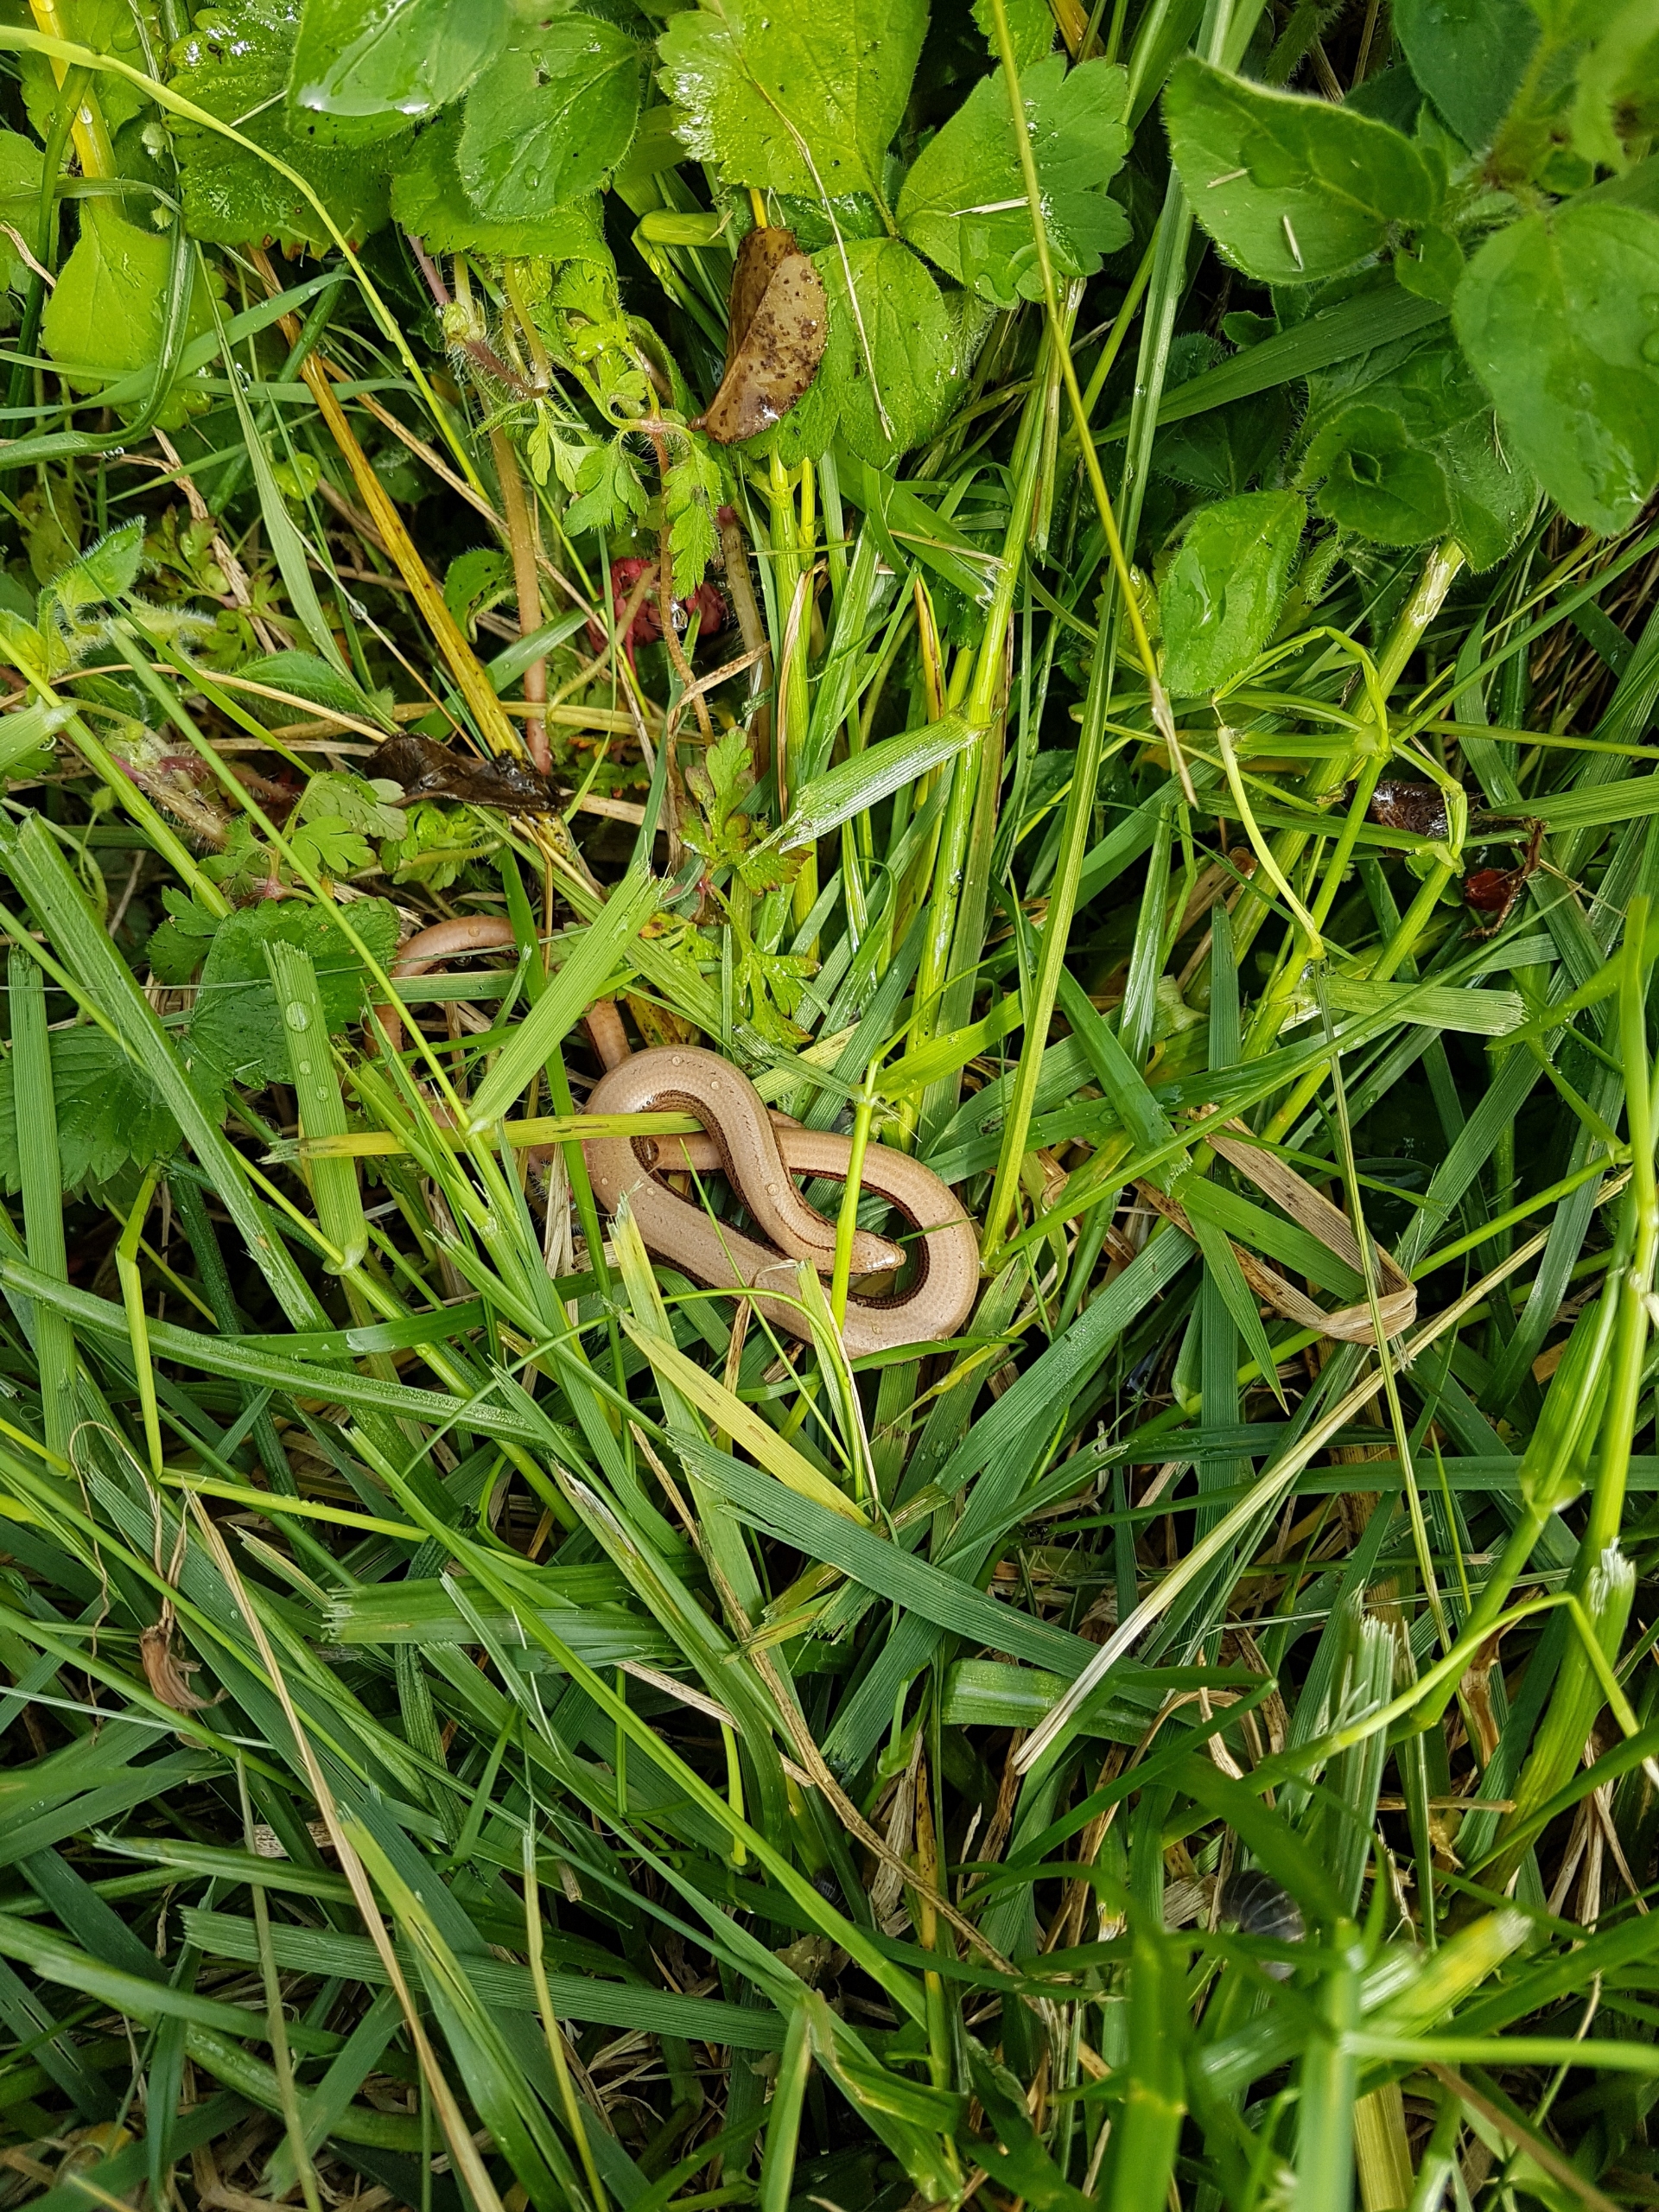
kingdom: Animalia
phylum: Chordata
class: Squamata
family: Anguidae
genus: Anguis
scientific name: Anguis fragilis
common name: Stålorm
